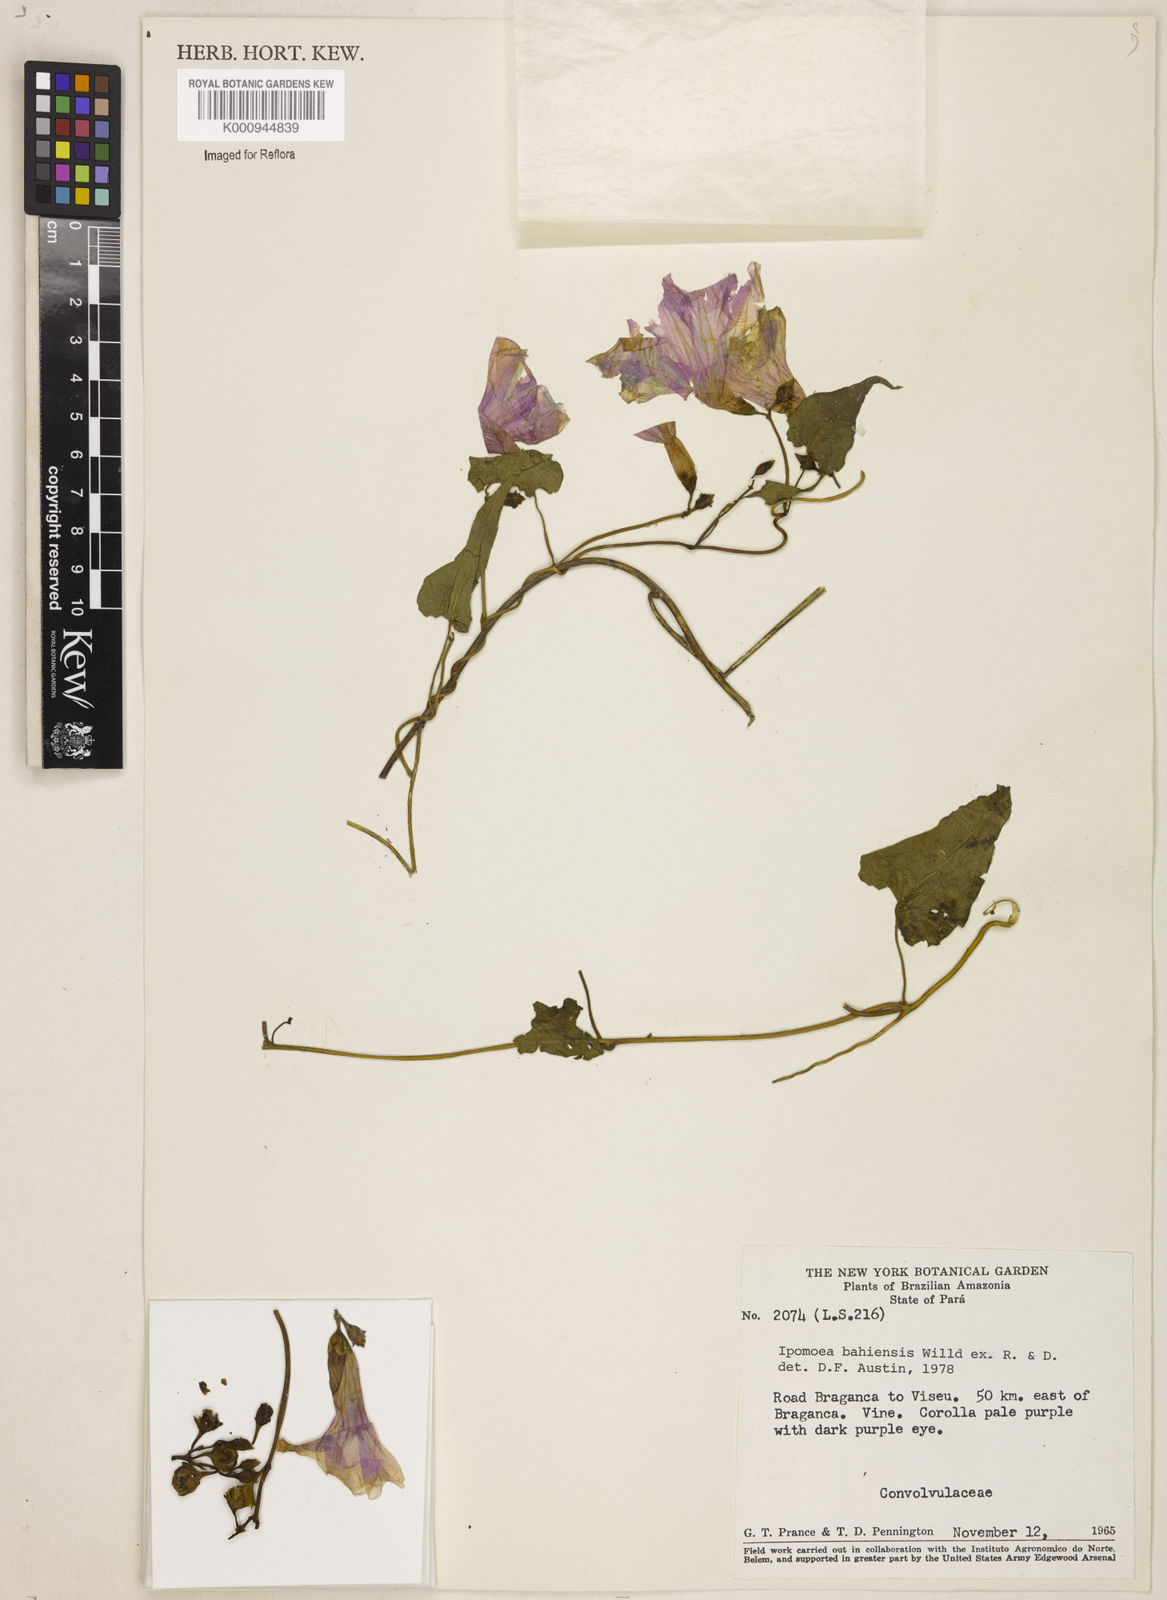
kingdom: Plantae
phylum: Tracheophyta
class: Magnoliopsida
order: Solanales
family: Convolvulaceae
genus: Ipomoea
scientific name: Ipomoea
